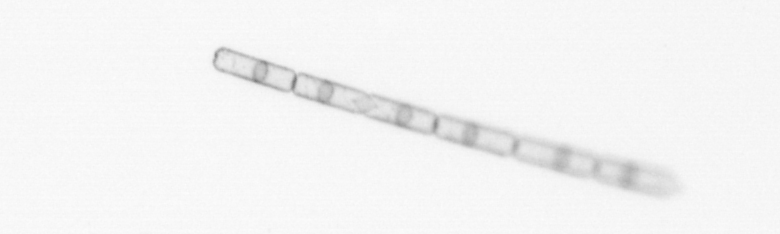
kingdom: Chromista
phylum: Ochrophyta
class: Bacillariophyceae
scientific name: Bacillariophyceae
